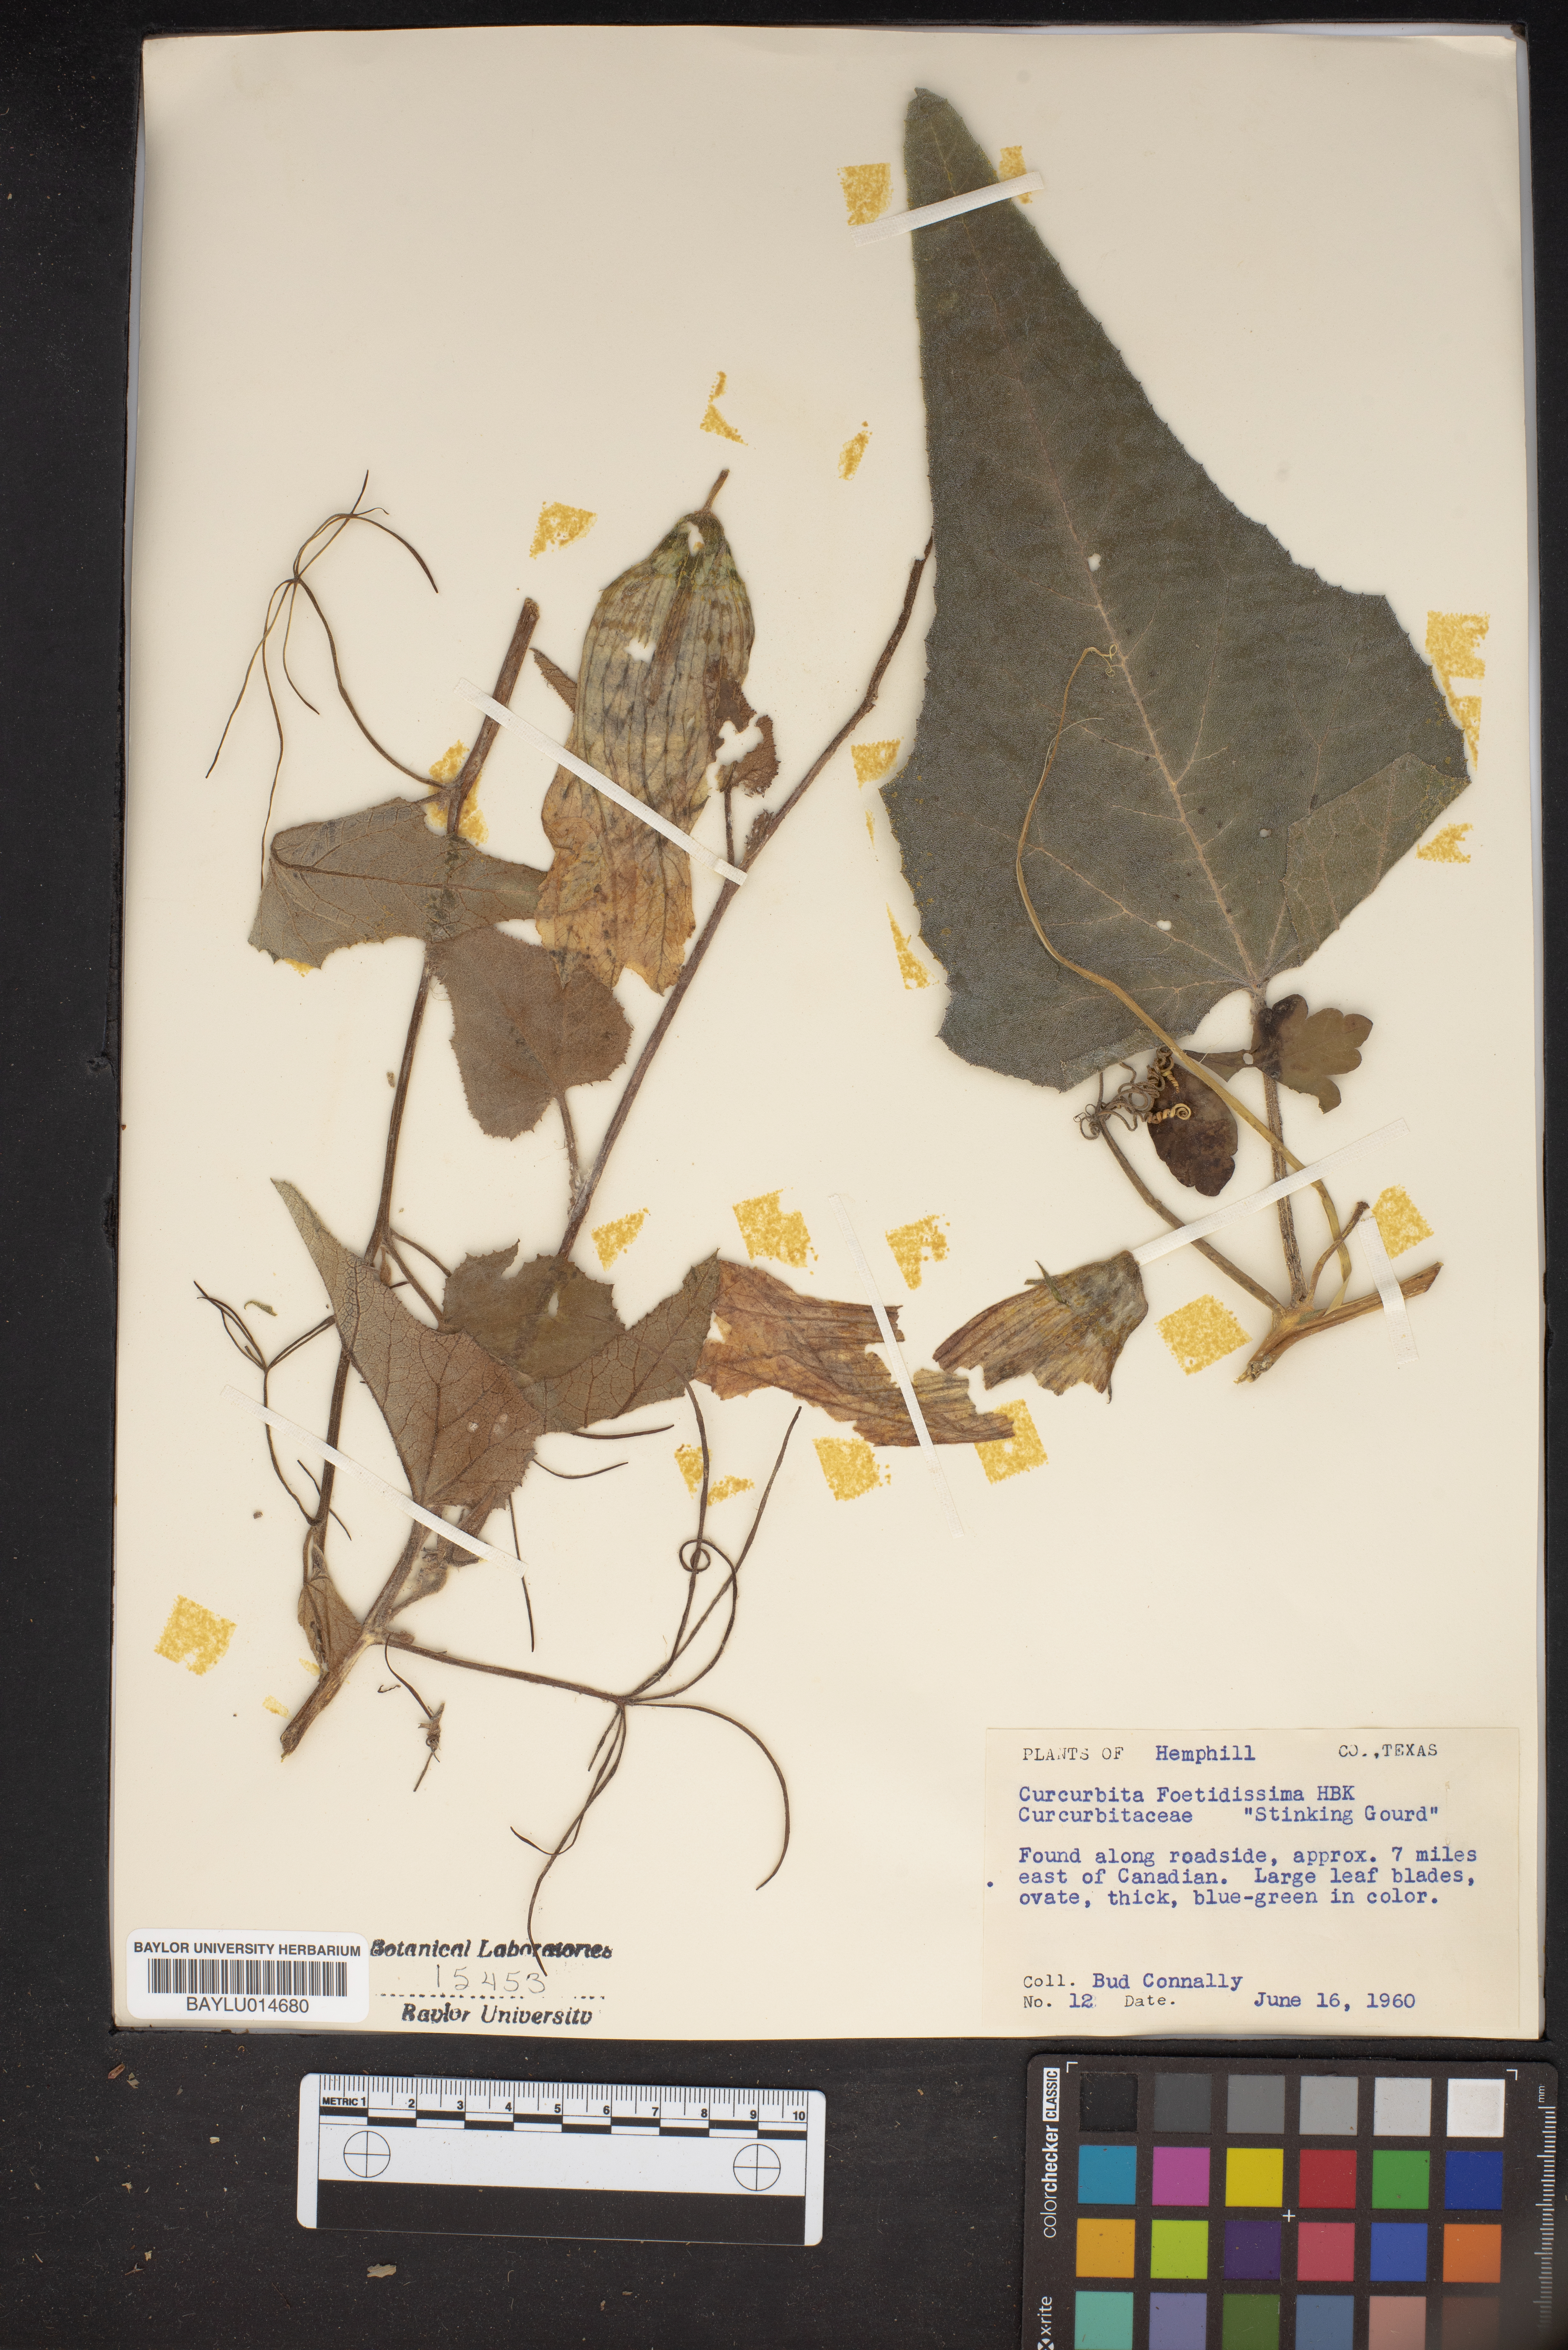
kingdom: Plantae
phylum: Tracheophyta
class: Magnoliopsida
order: Cucurbitales
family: Cucurbitaceae
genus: Cucurbita
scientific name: Cucurbita foetidissima
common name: Buffalo gourd
